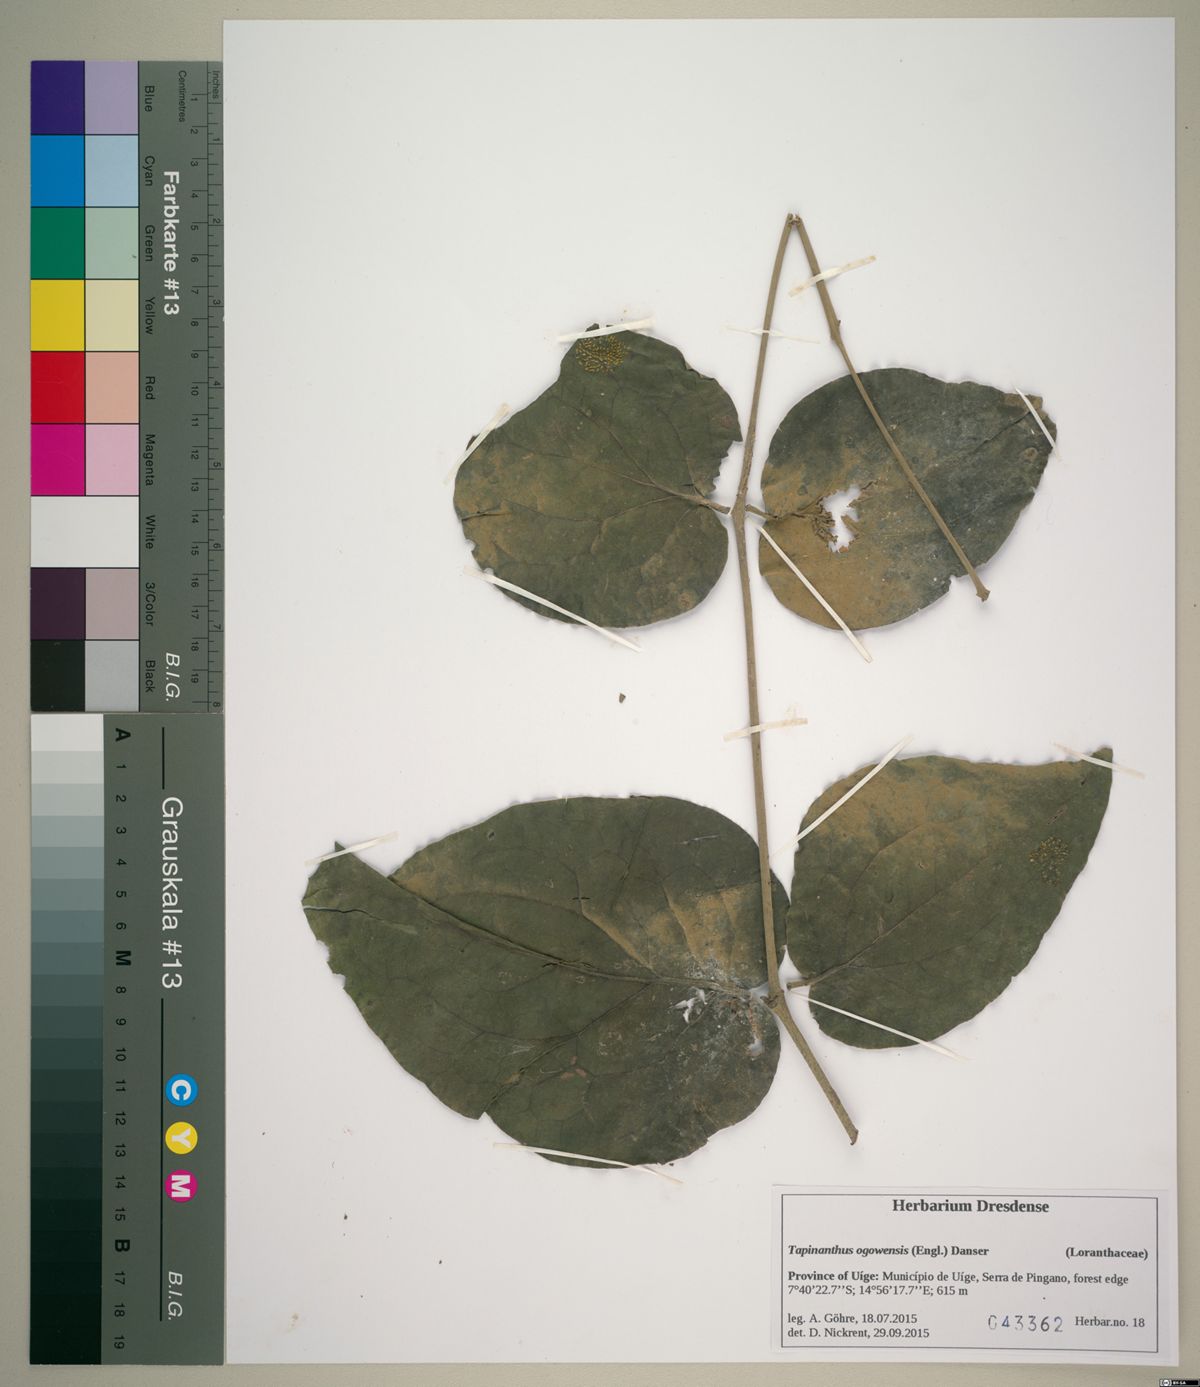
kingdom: Plantae
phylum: Tracheophyta
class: Magnoliopsida
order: Santalales
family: Loranthaceae
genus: Tapinanthus
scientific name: Tapinanthus ogowensis
